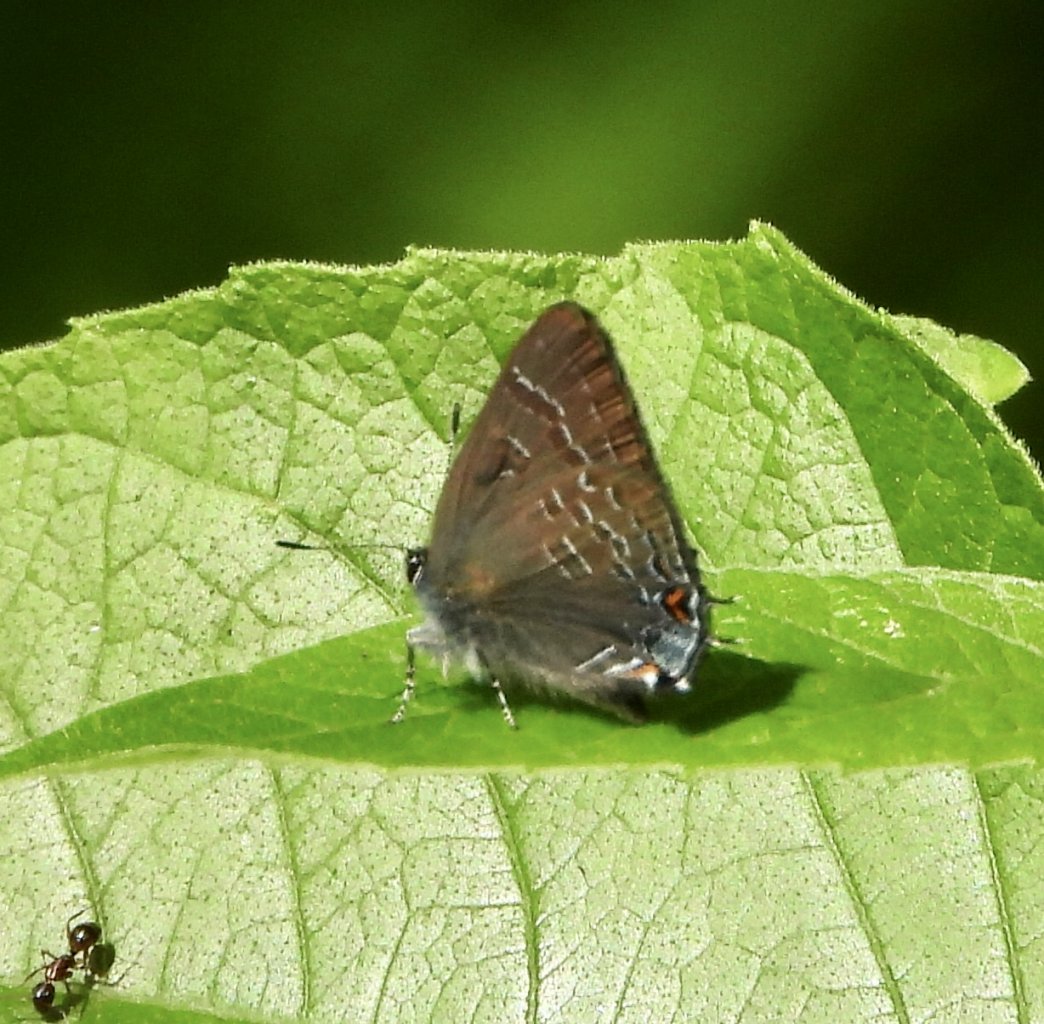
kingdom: Animalia
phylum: Arthropoda
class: Insecta
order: Lepidoptera
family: Lycaenidae
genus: Satyrium
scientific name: Satyrium calanus
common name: Banded Hairstreak
